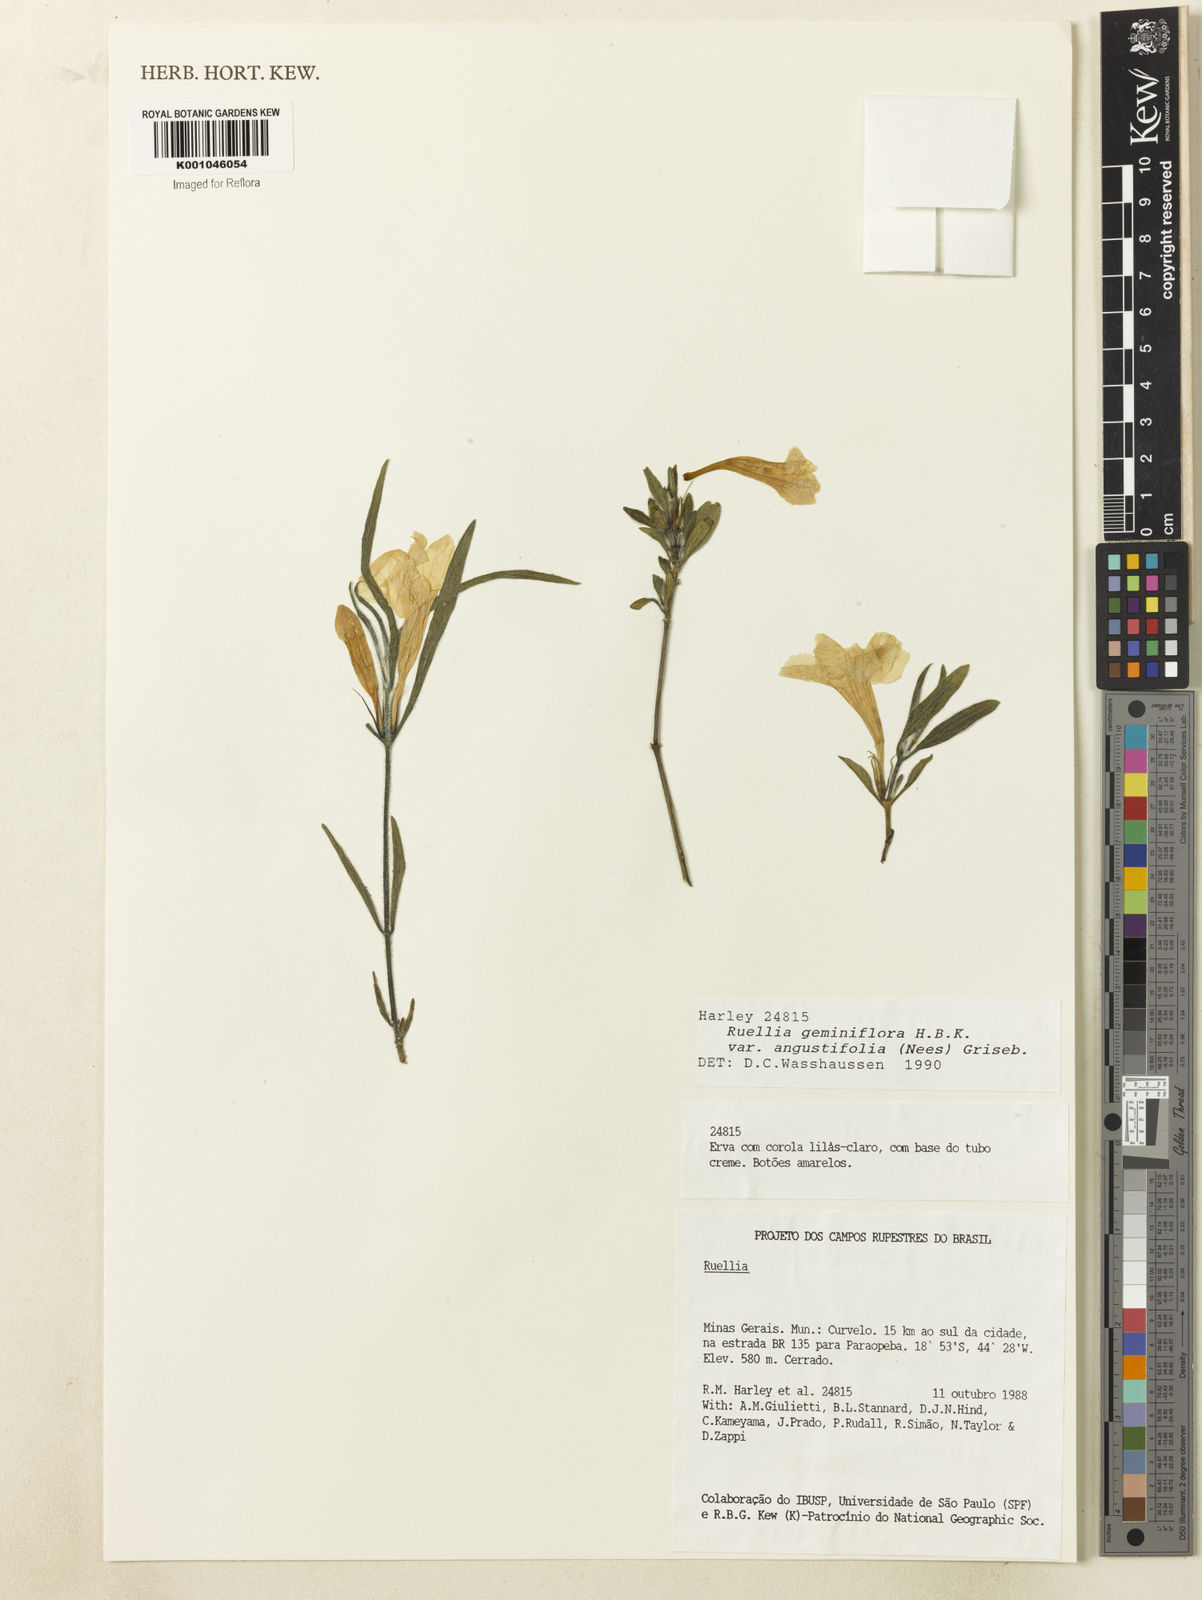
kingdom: Plantae
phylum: Tracheophyta
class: Magnoliopsida
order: Lamiales
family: Acanthaceae
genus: Ruellia
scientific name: Ruellia geminiflora
